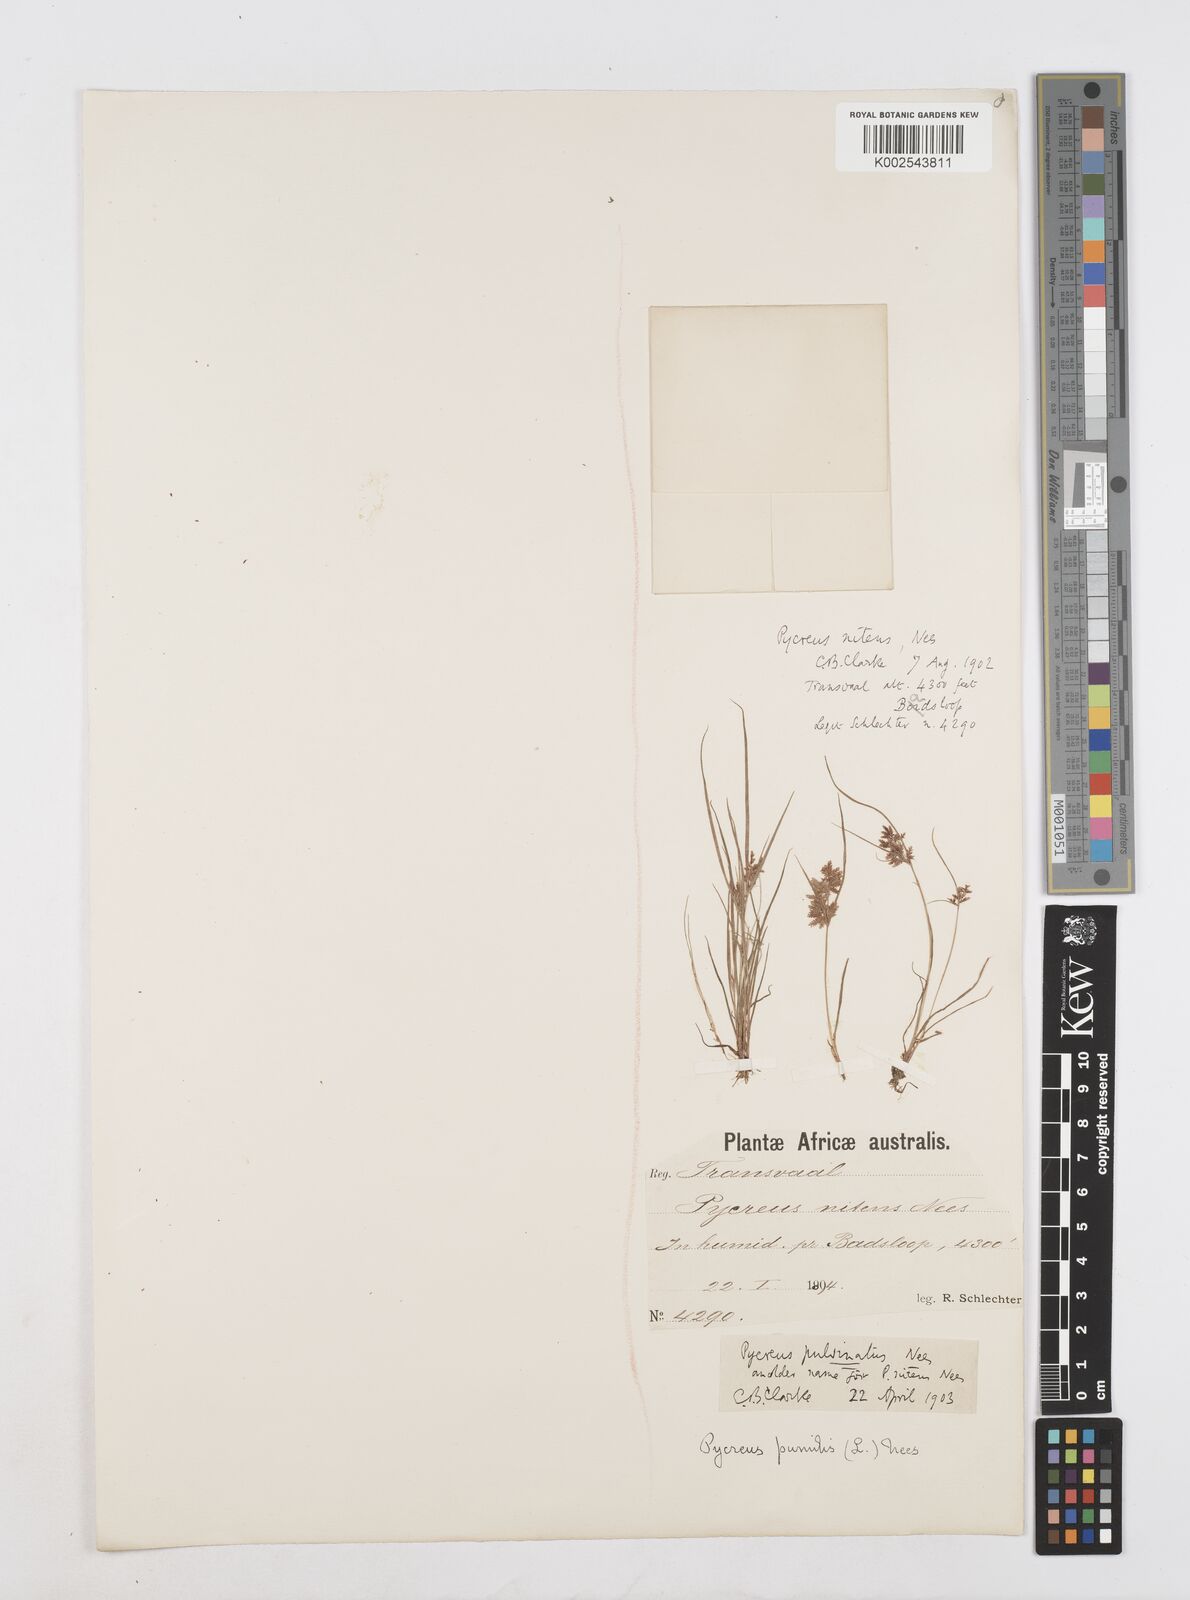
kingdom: Plantae
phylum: Tracheophyta
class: Liliopsida
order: Poales
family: Cyperaceae
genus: Cyperus
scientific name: Cyperus pumilus
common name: Low flatsedge
